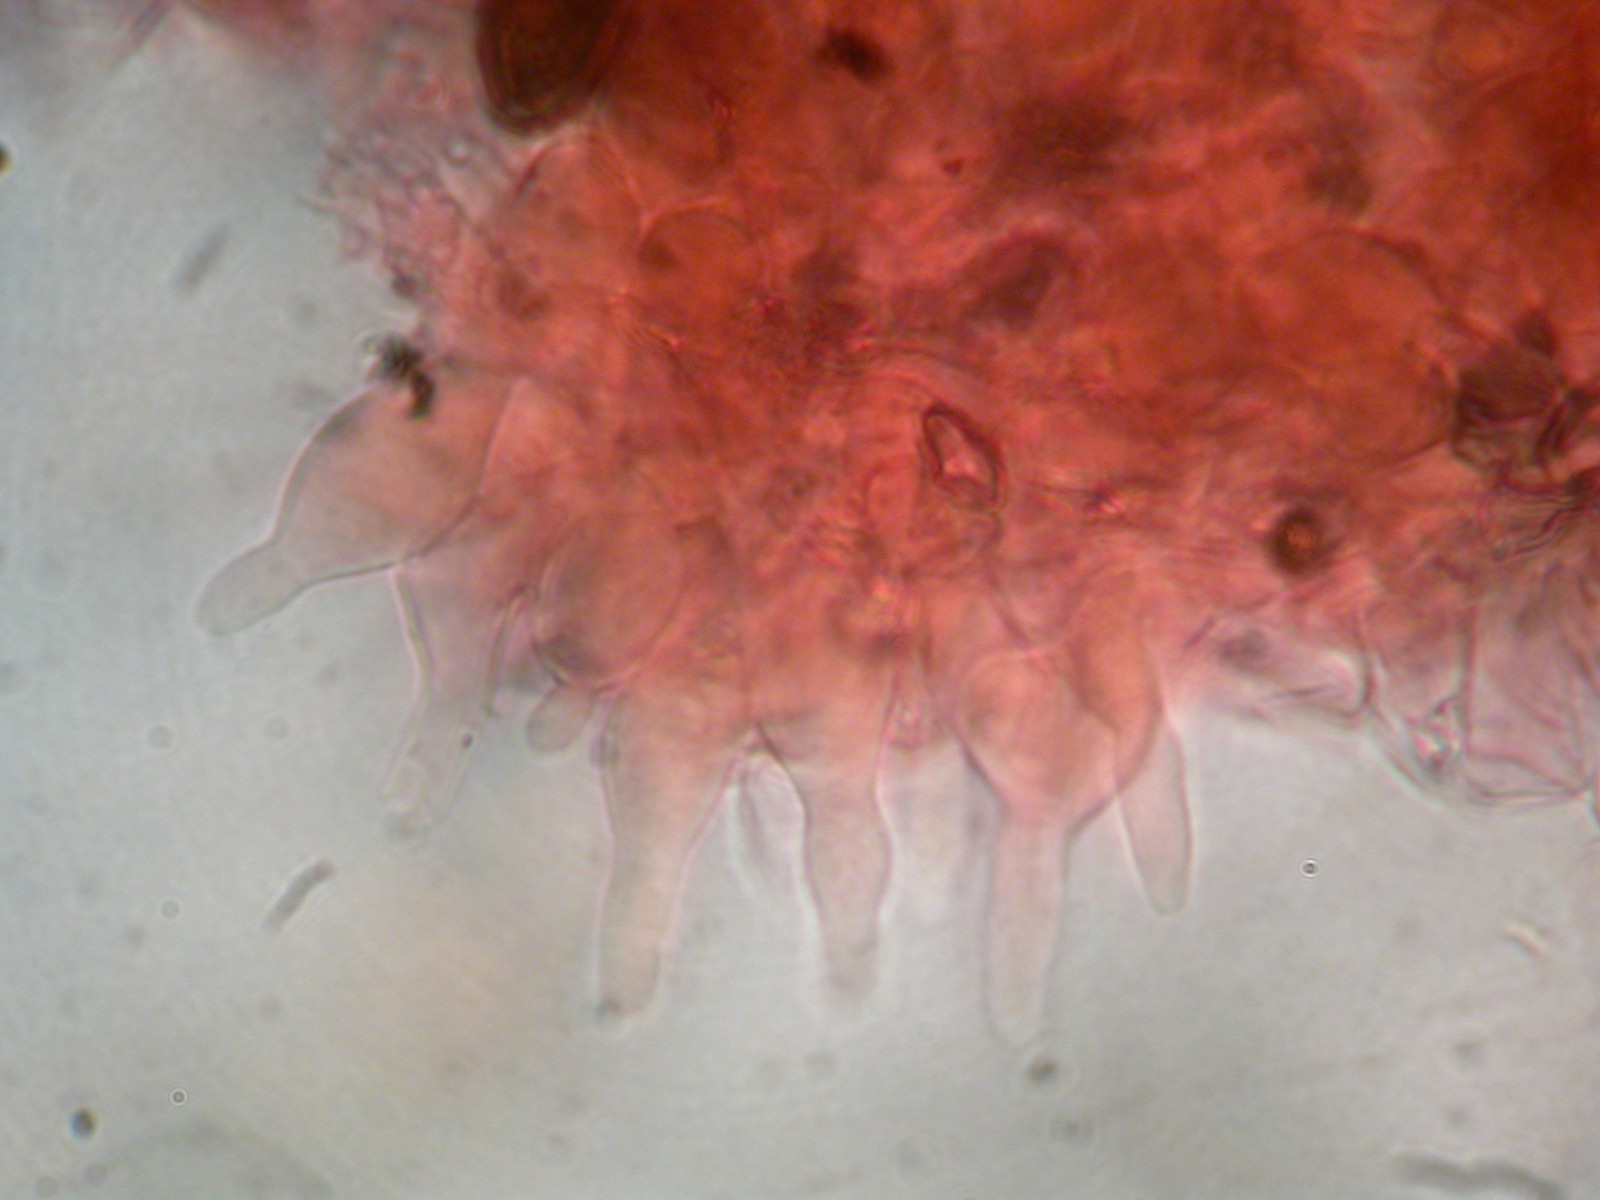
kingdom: Fungi
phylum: Basidiomycota
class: Agaricomycetes
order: Agaricales
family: Strophariaceae
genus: Deconica
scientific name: Deconica coprophila
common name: gødnings-stråhat
